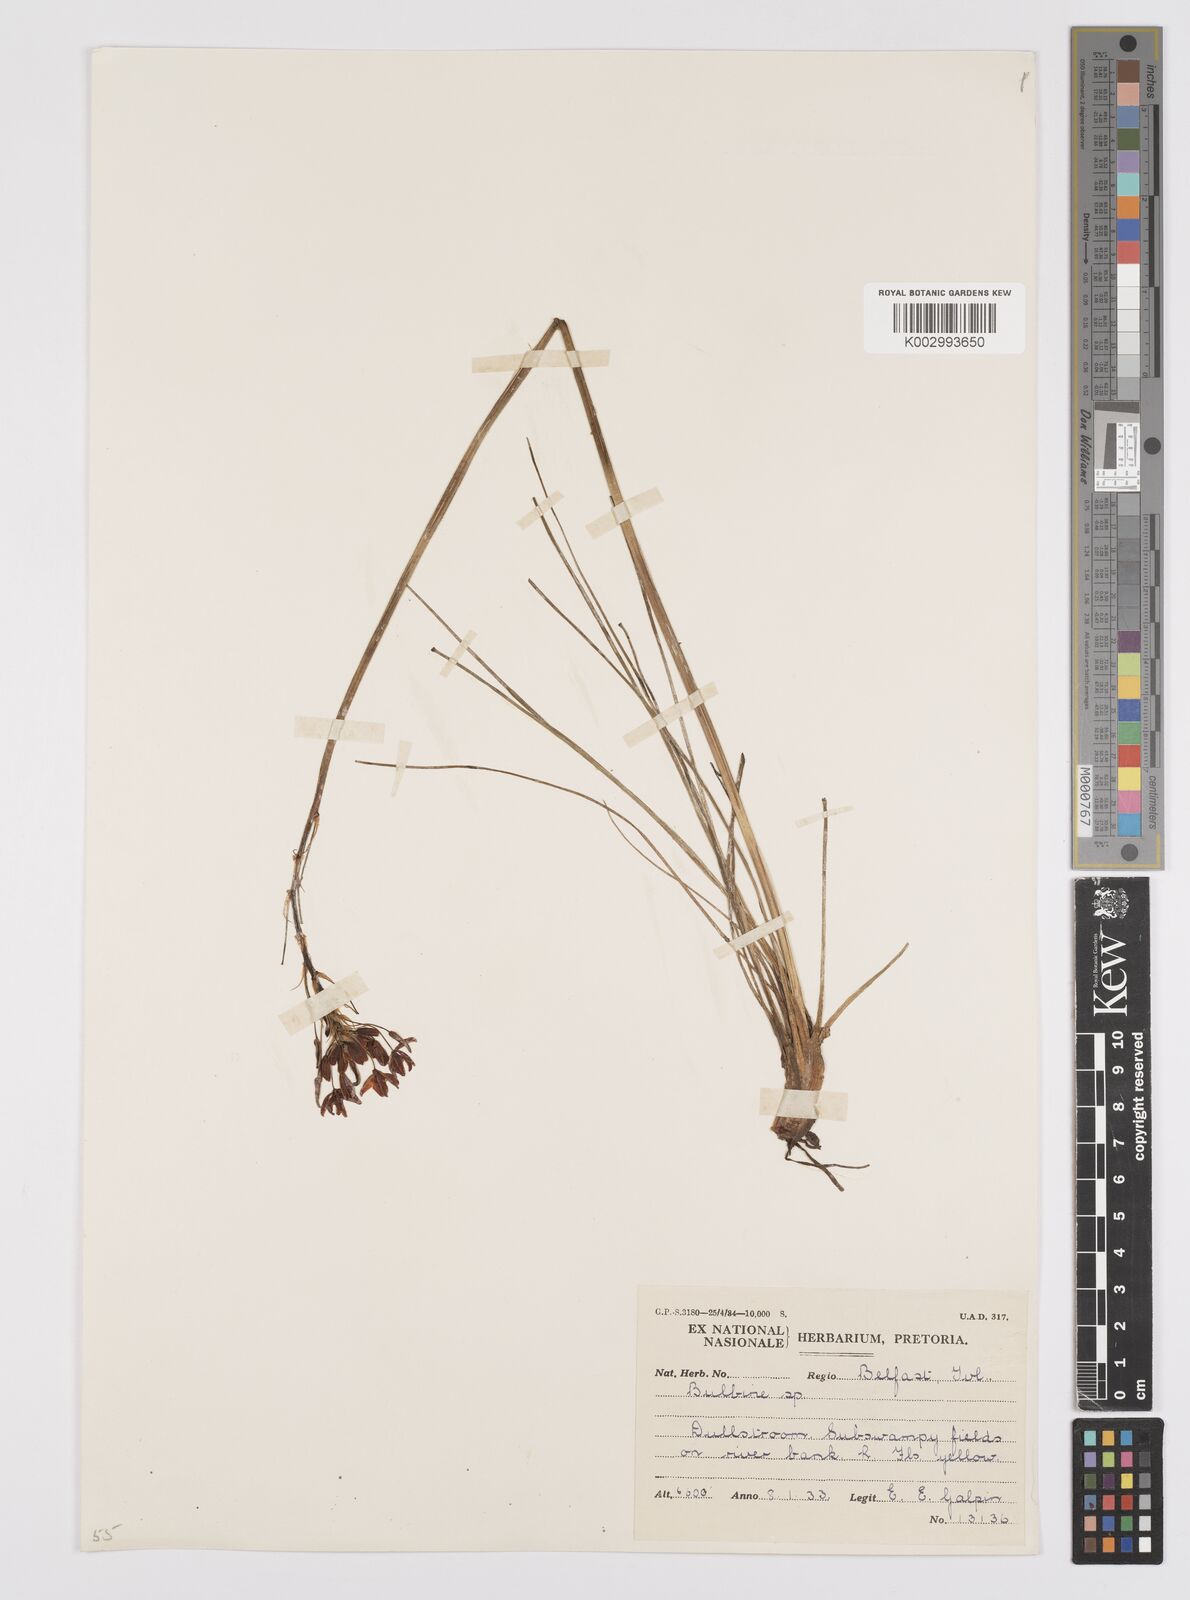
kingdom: Plantae
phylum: Tracheophyta
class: Liliopsida
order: Asparagales
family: Asphodelaceae
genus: Bulbine
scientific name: Bulbine capitata
